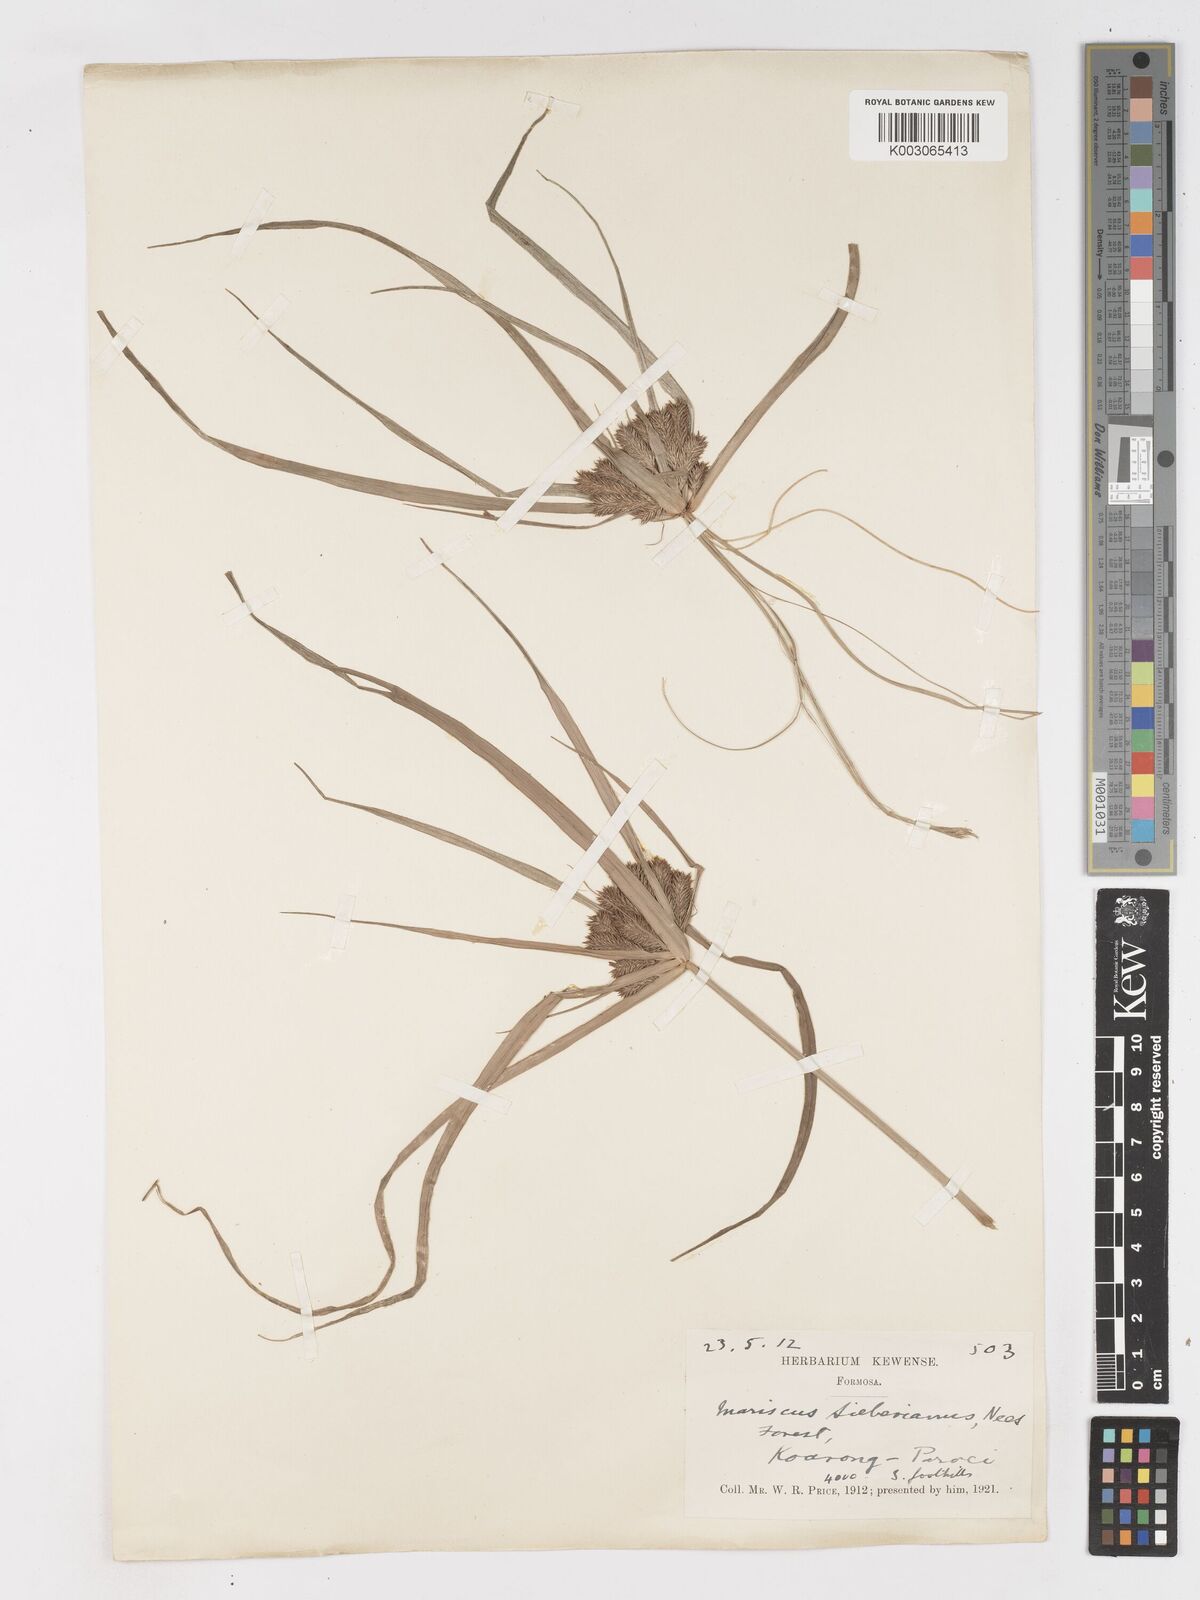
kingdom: Plantae
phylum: Tracheophyta
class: Liliopsida
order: Poales
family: Cyperaceae
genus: Cyperus
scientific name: Cyperus cyperoides
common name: Pacific island flat sedge
